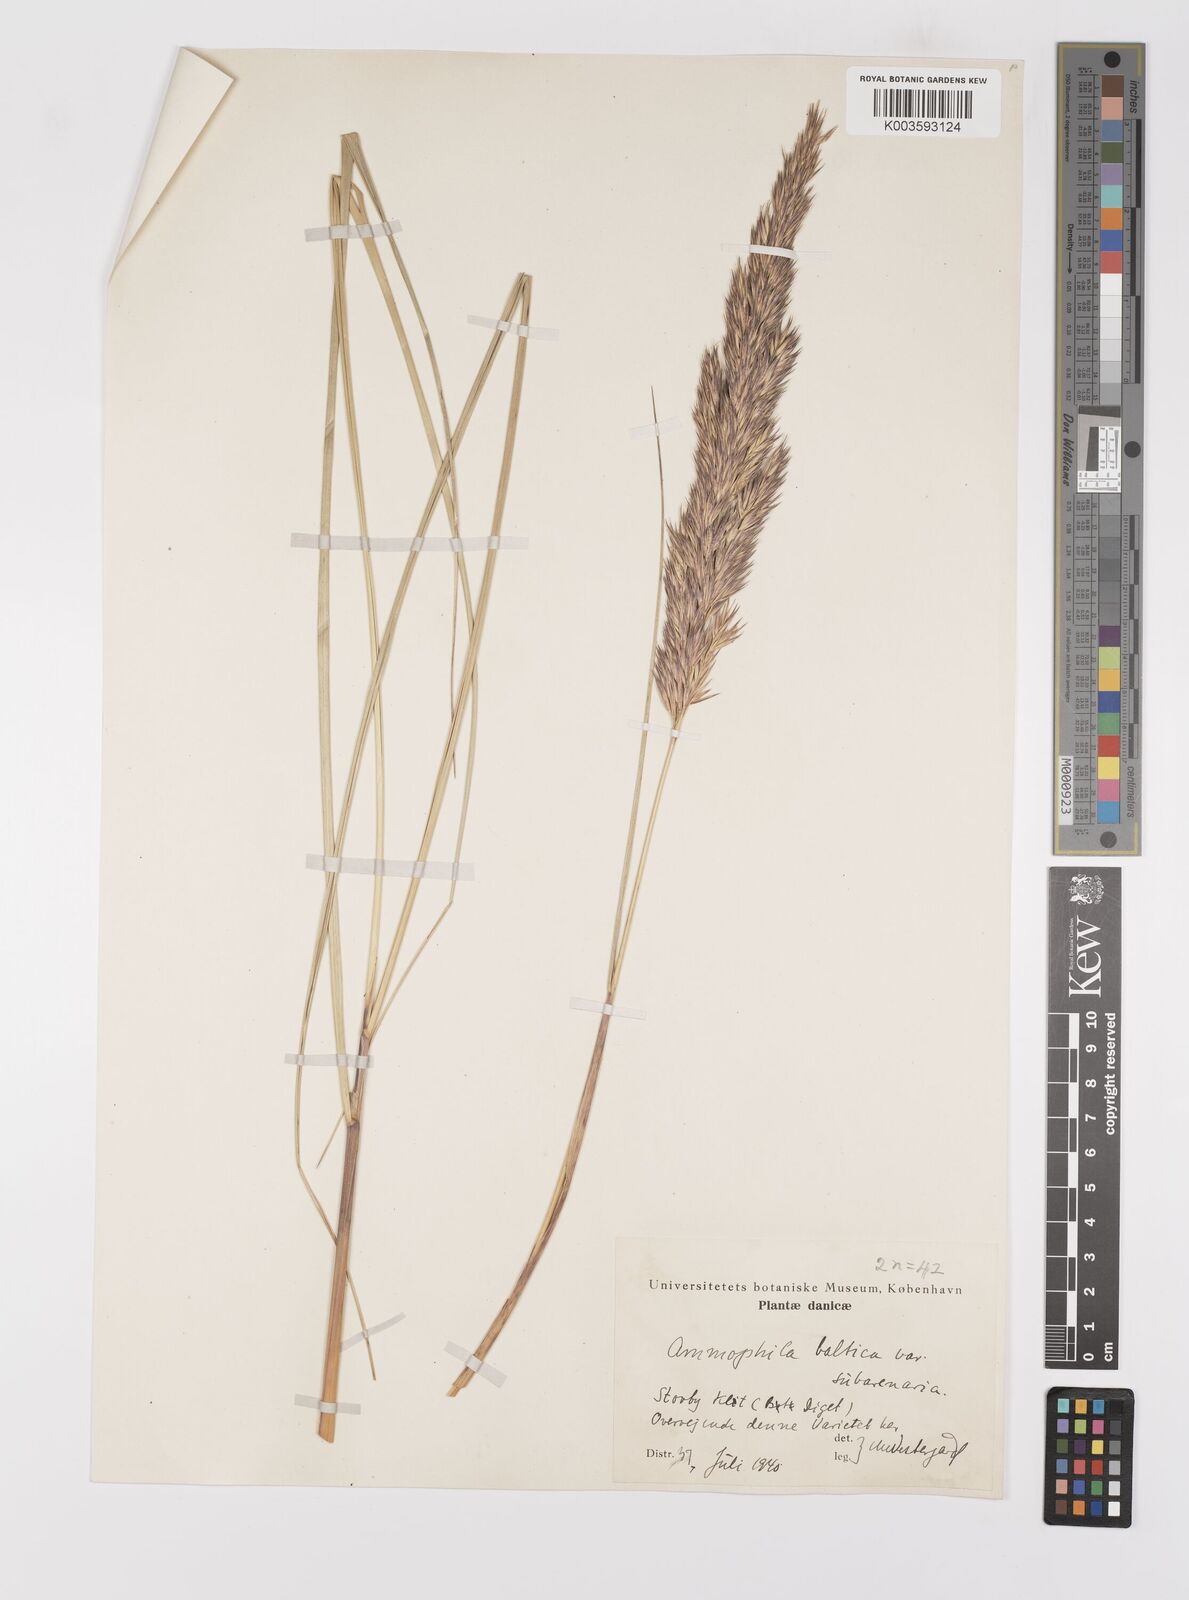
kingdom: Plantae
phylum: Tracheophyta
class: Liliopsida
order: Poales
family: Poaceae
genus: Calamagrostis
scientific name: Calamagrostis baltica
